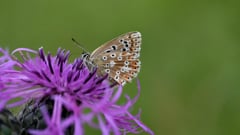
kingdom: Animalia
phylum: Arthropoda
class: Insecta
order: Lepidoptera
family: Lycaenidae
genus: Lysandra
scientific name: Lysandra coridon
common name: Chalkhill blue
